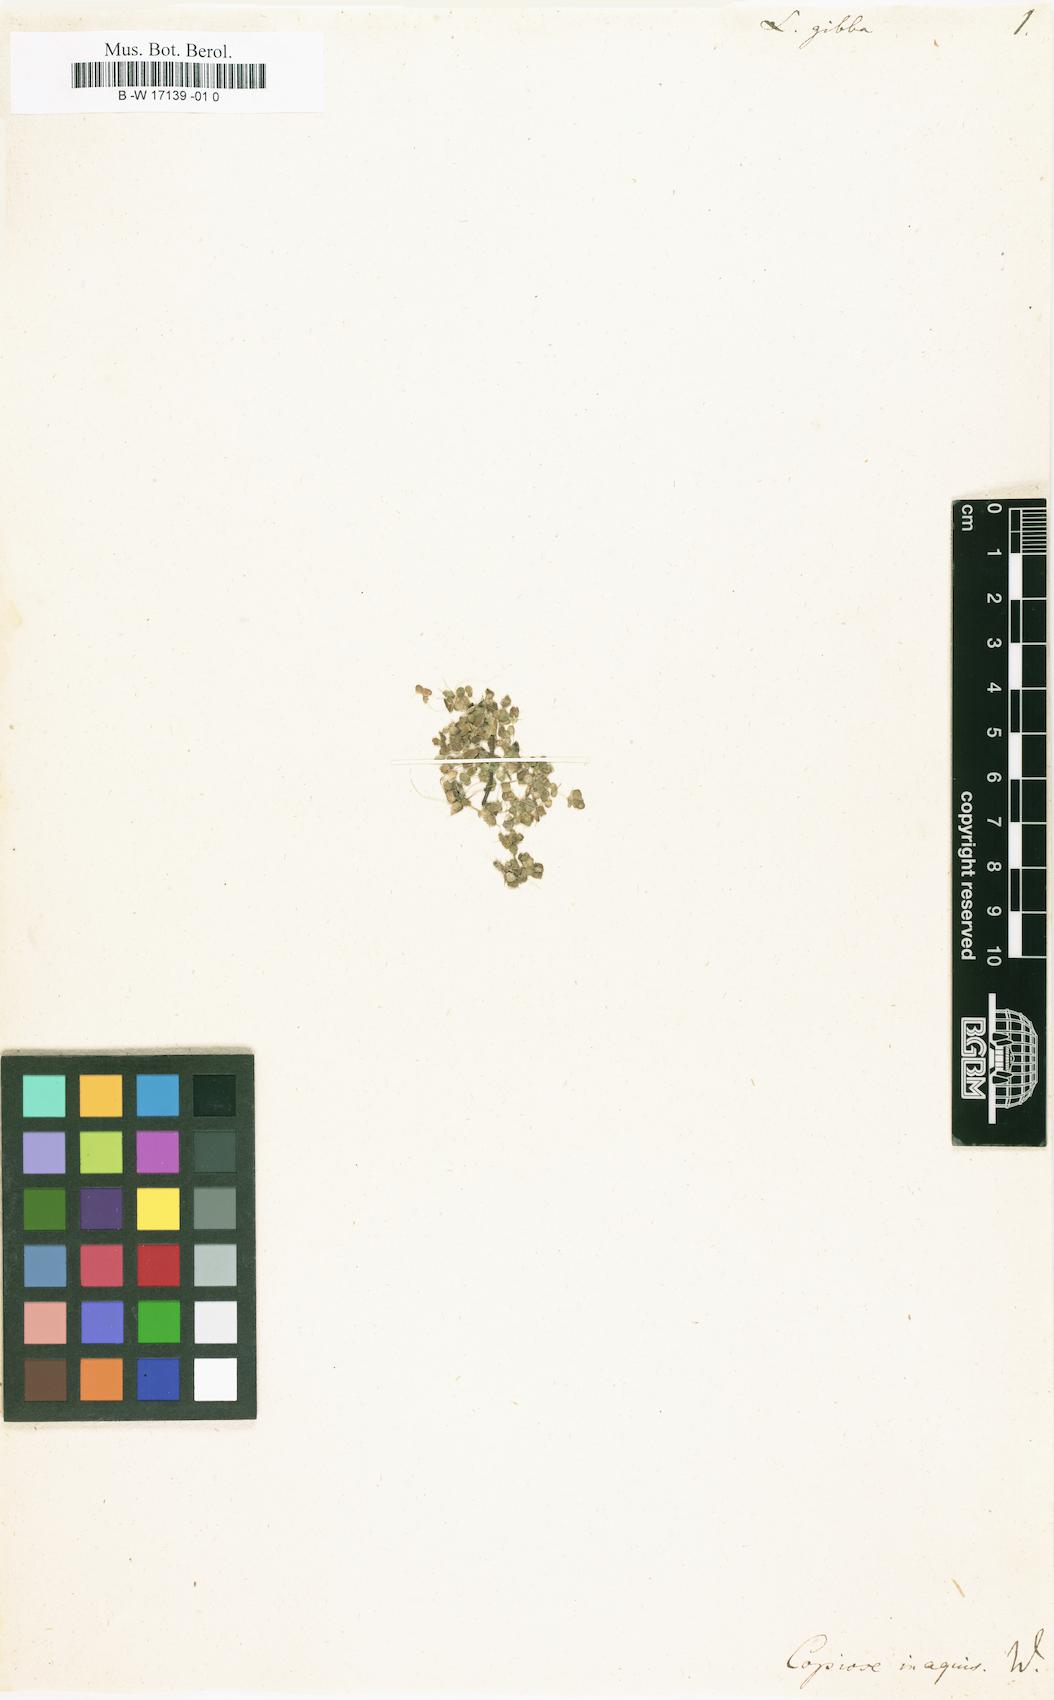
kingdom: Plantae
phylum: Tracheophyta
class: Liliopsida
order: Alismatales
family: Araceae
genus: Lemna
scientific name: Lemna gibba
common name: Fat duckweed
